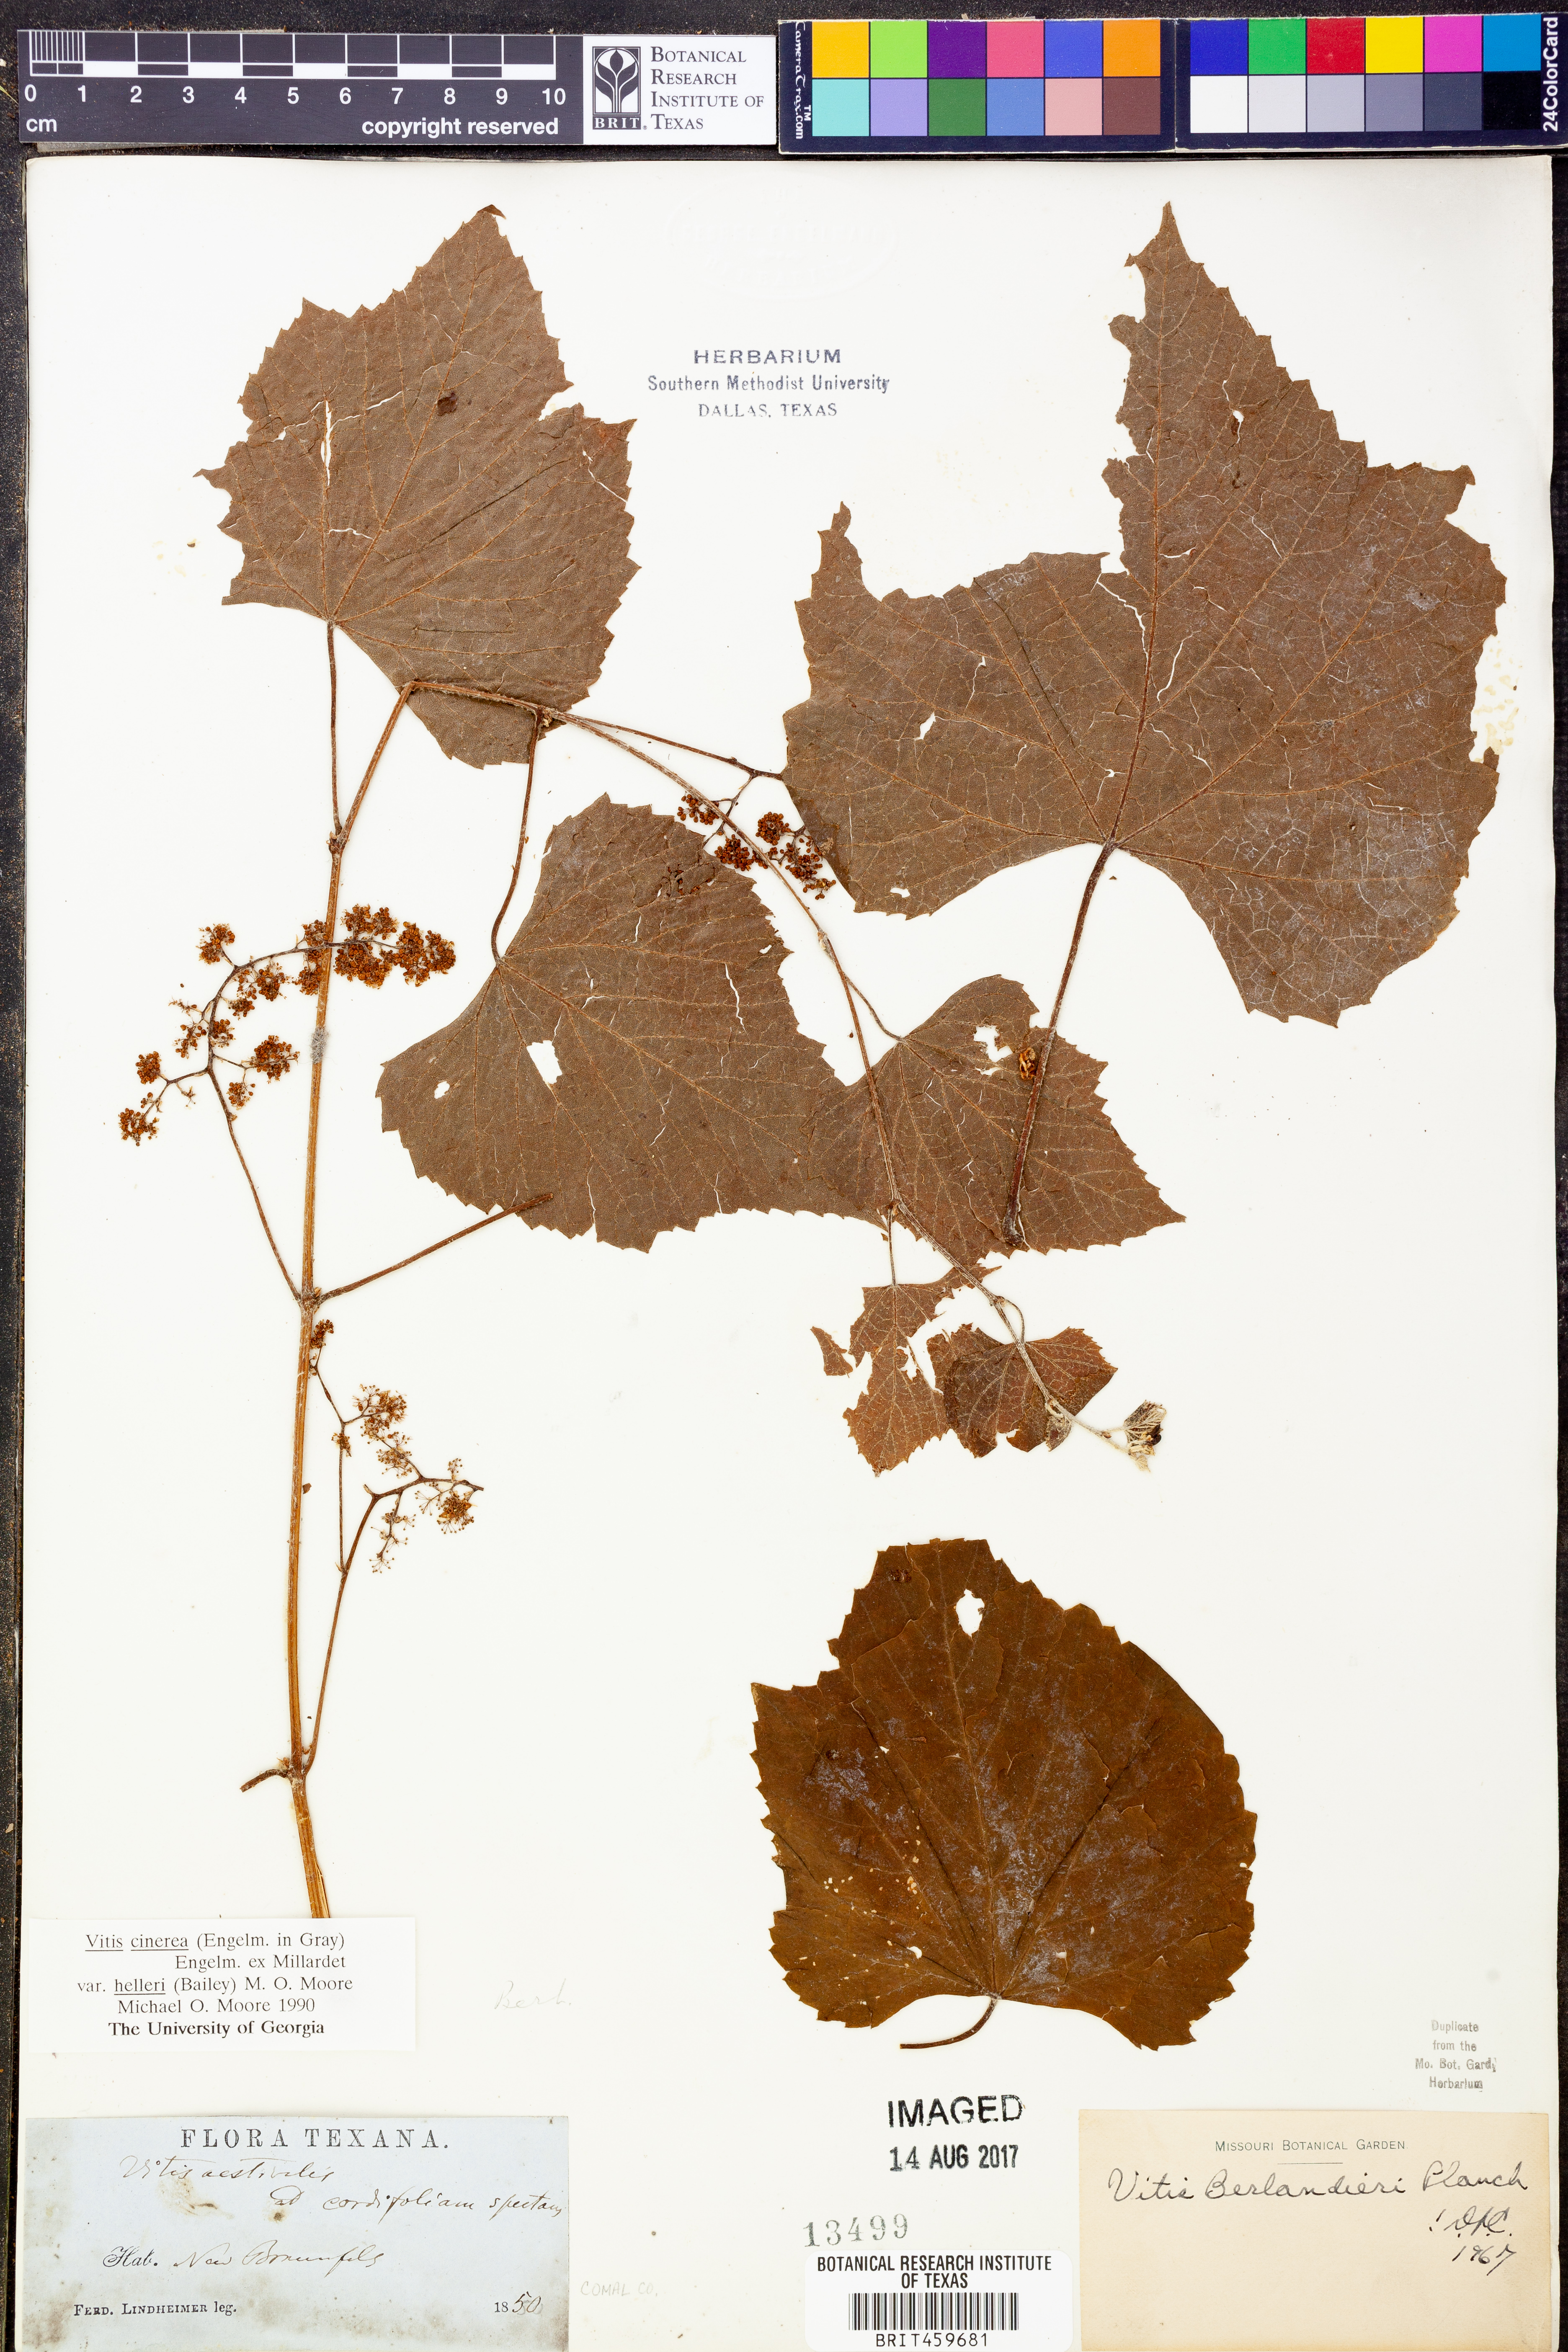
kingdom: Plantae
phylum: Tracheophyta
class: Magnoliopsida
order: Vitales
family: Vitaceae
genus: Vitis
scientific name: Vitis cinerea
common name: Ashy grape
